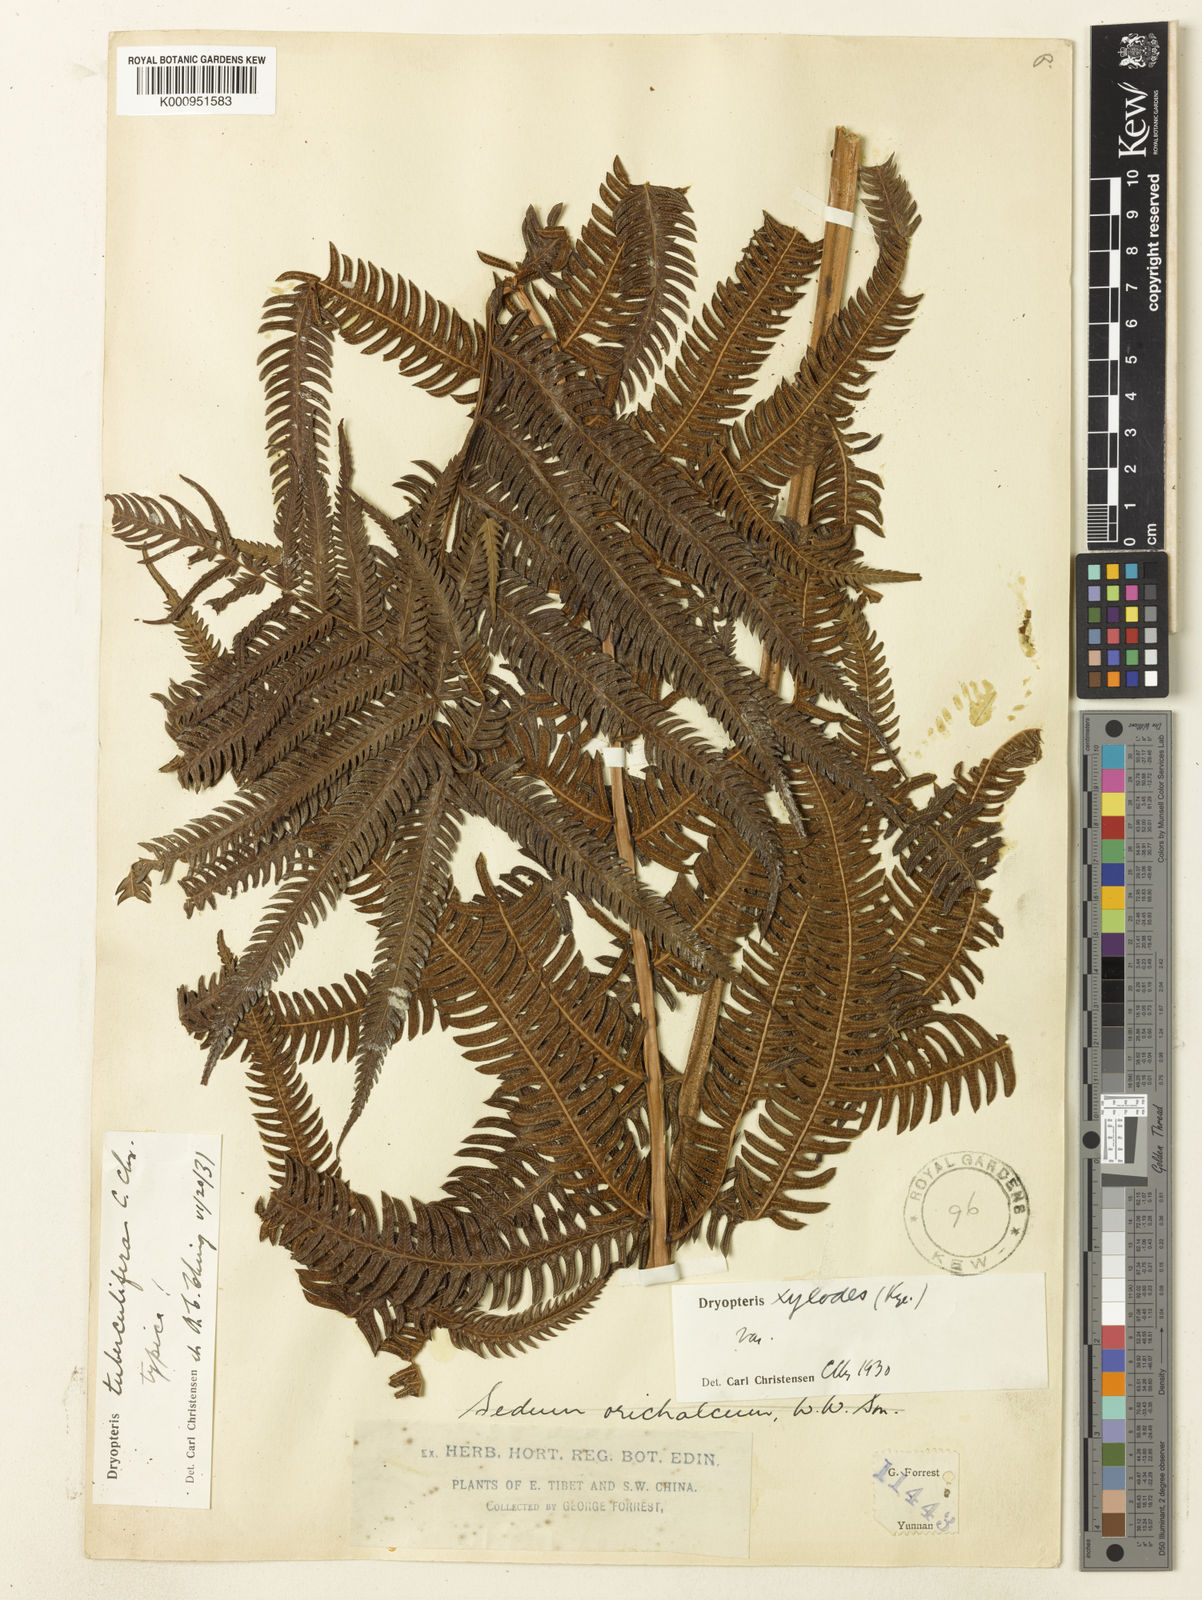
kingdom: Plantae
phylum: Tracheophyta
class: Polypodiopsida
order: Polypodiales
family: Thelypteridaceae
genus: Pseudocyclosorus
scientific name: Pseudocyclosorus
